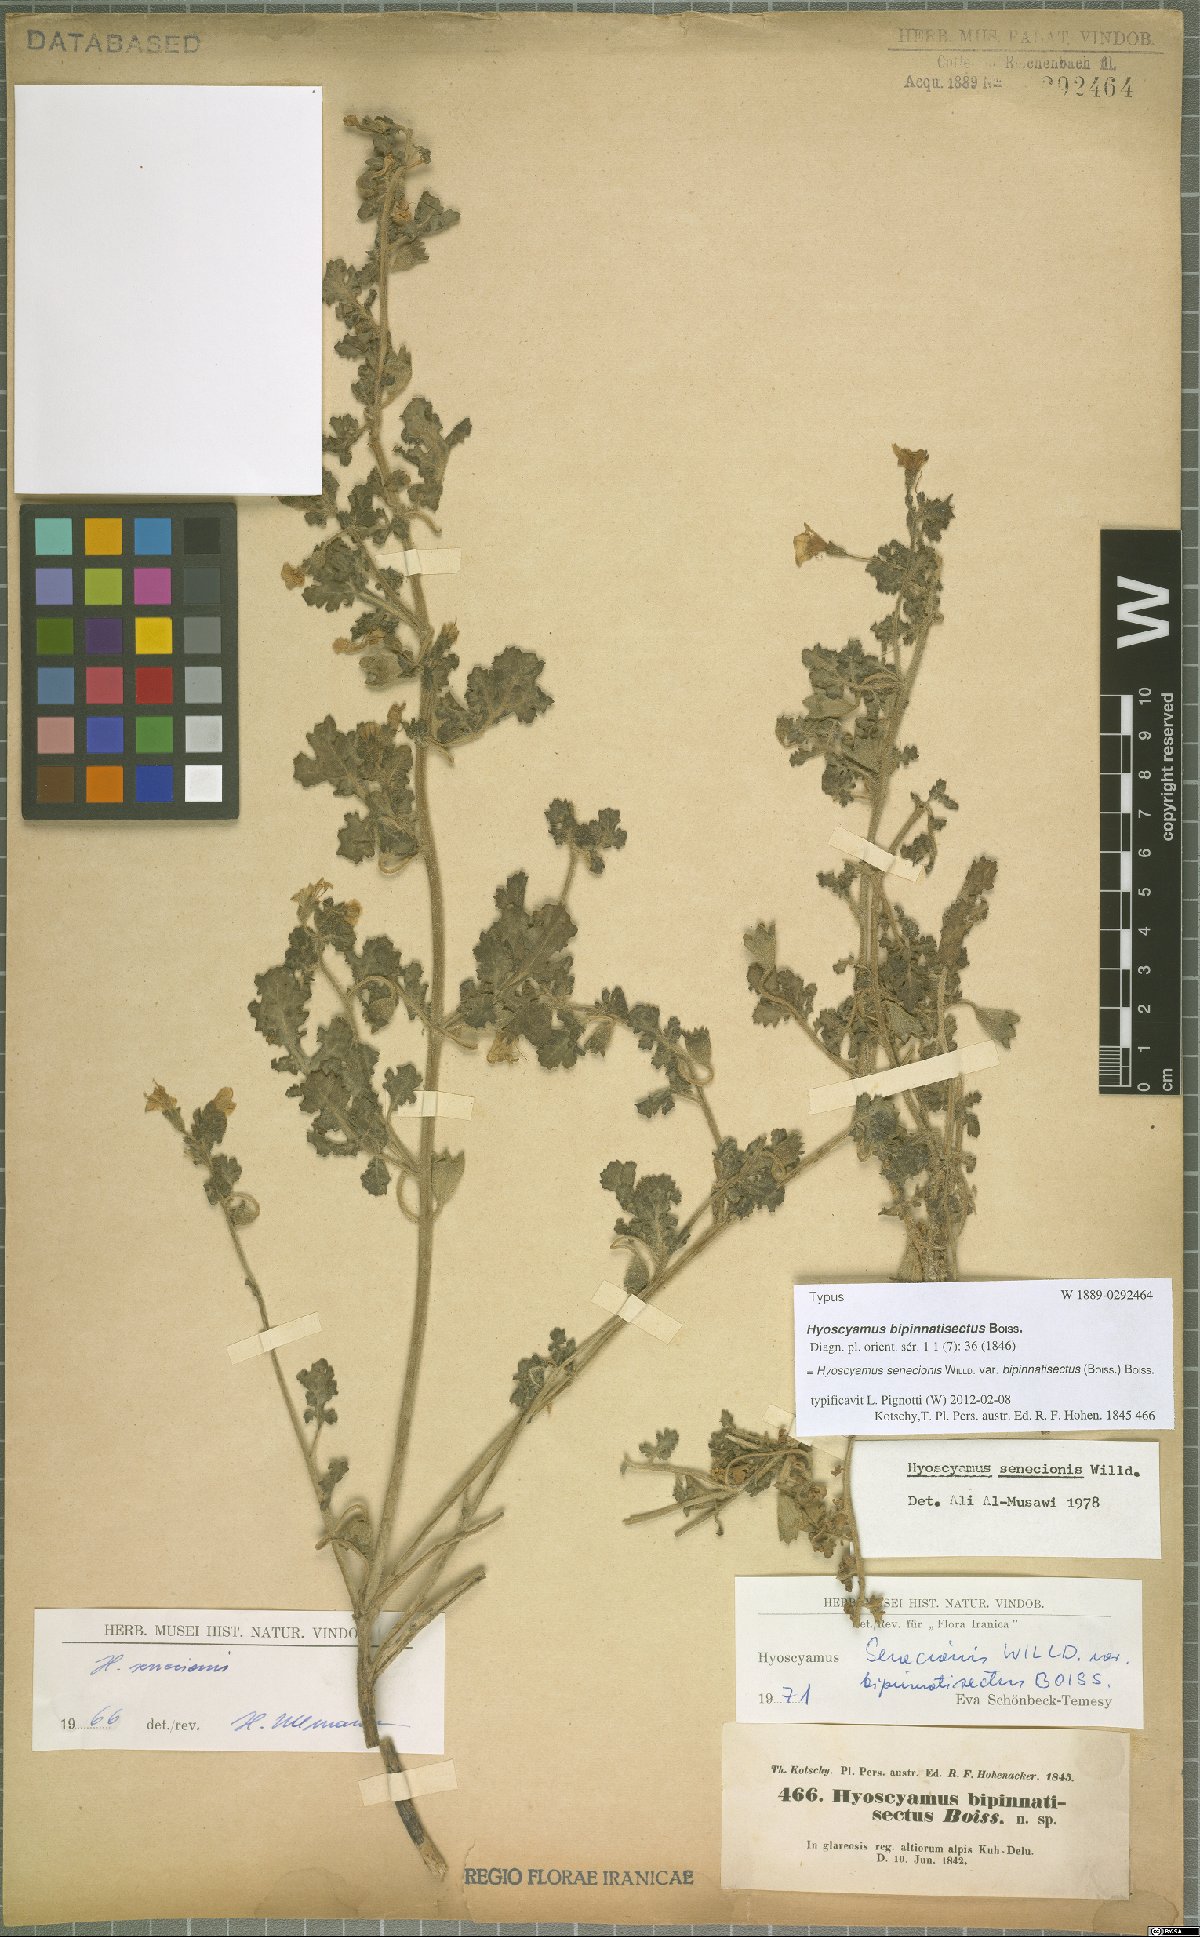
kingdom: Plantae
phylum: Tracheophyta
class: Magnoliopsida
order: Solanales
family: Solanaceae
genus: Hyoscyamus
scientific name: Hyoscyamus senecionis
